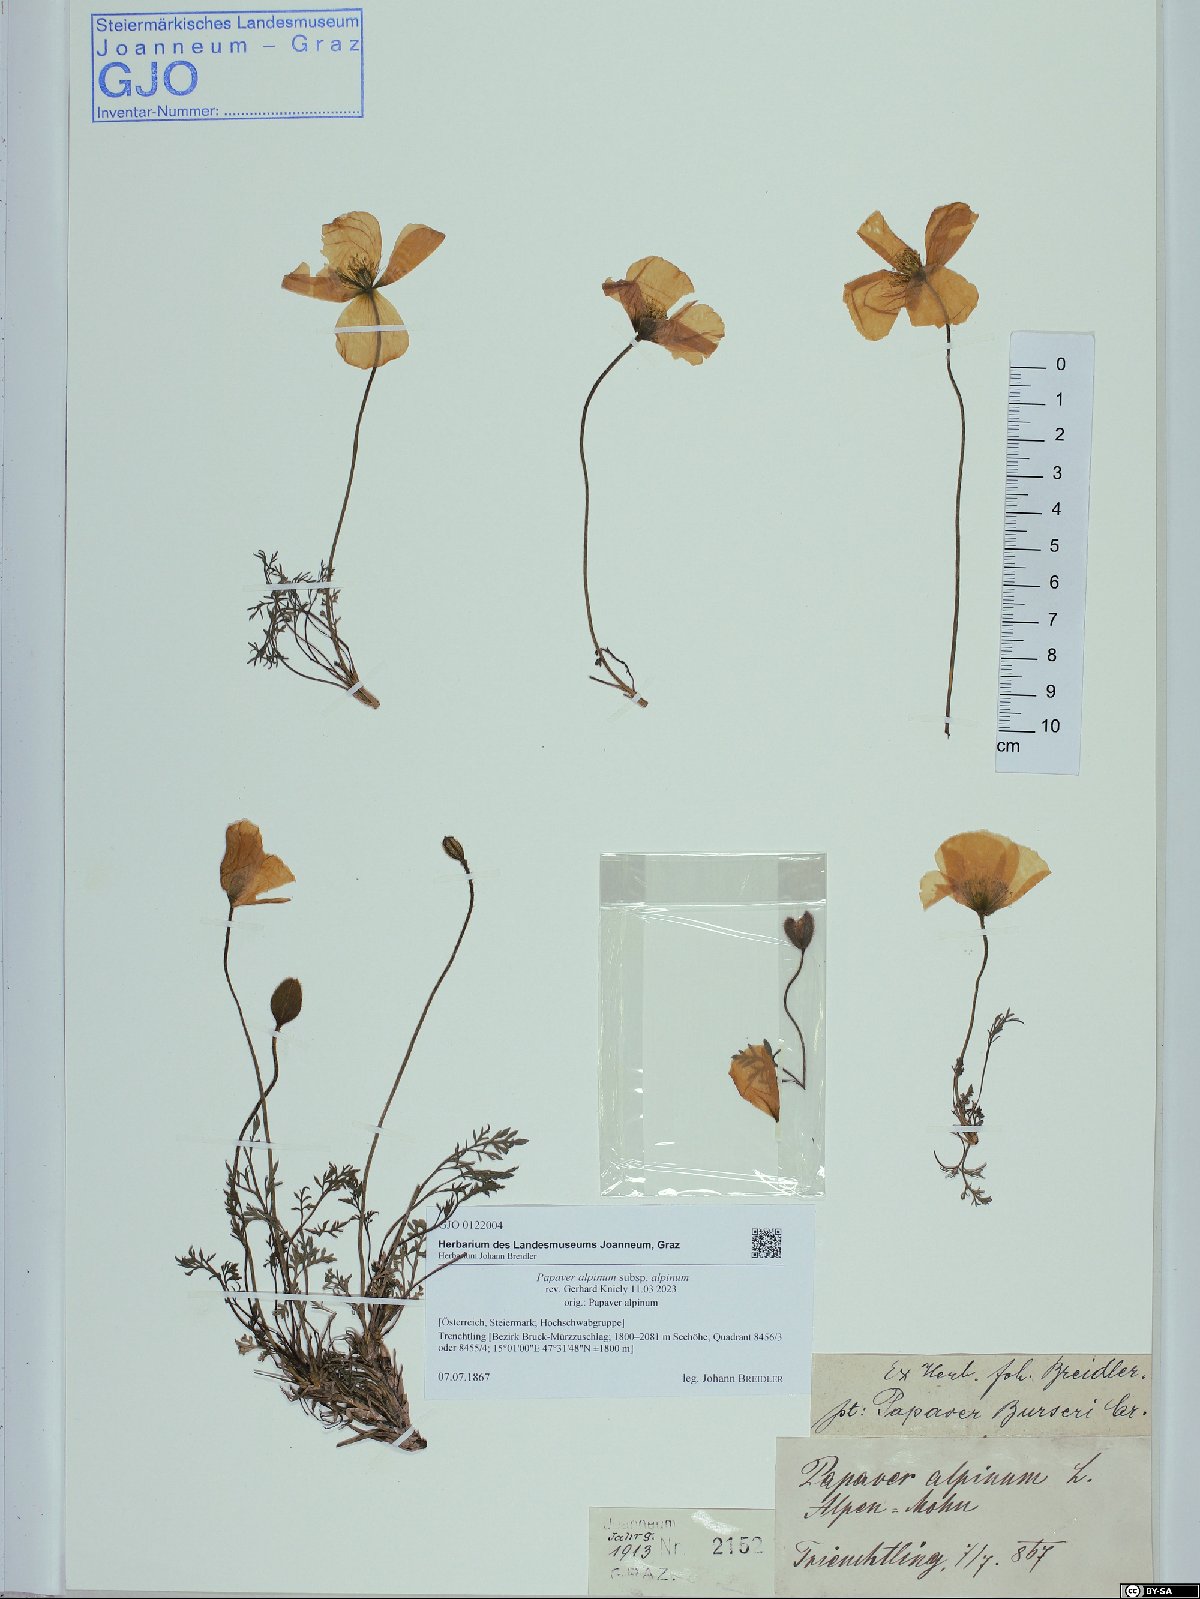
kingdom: Plantae
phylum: Tracheophyta
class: Magnoliopsida
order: Ranunculales
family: Papaveraceae
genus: Papaver
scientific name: Papaver alpinum
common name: Austrian poppy
